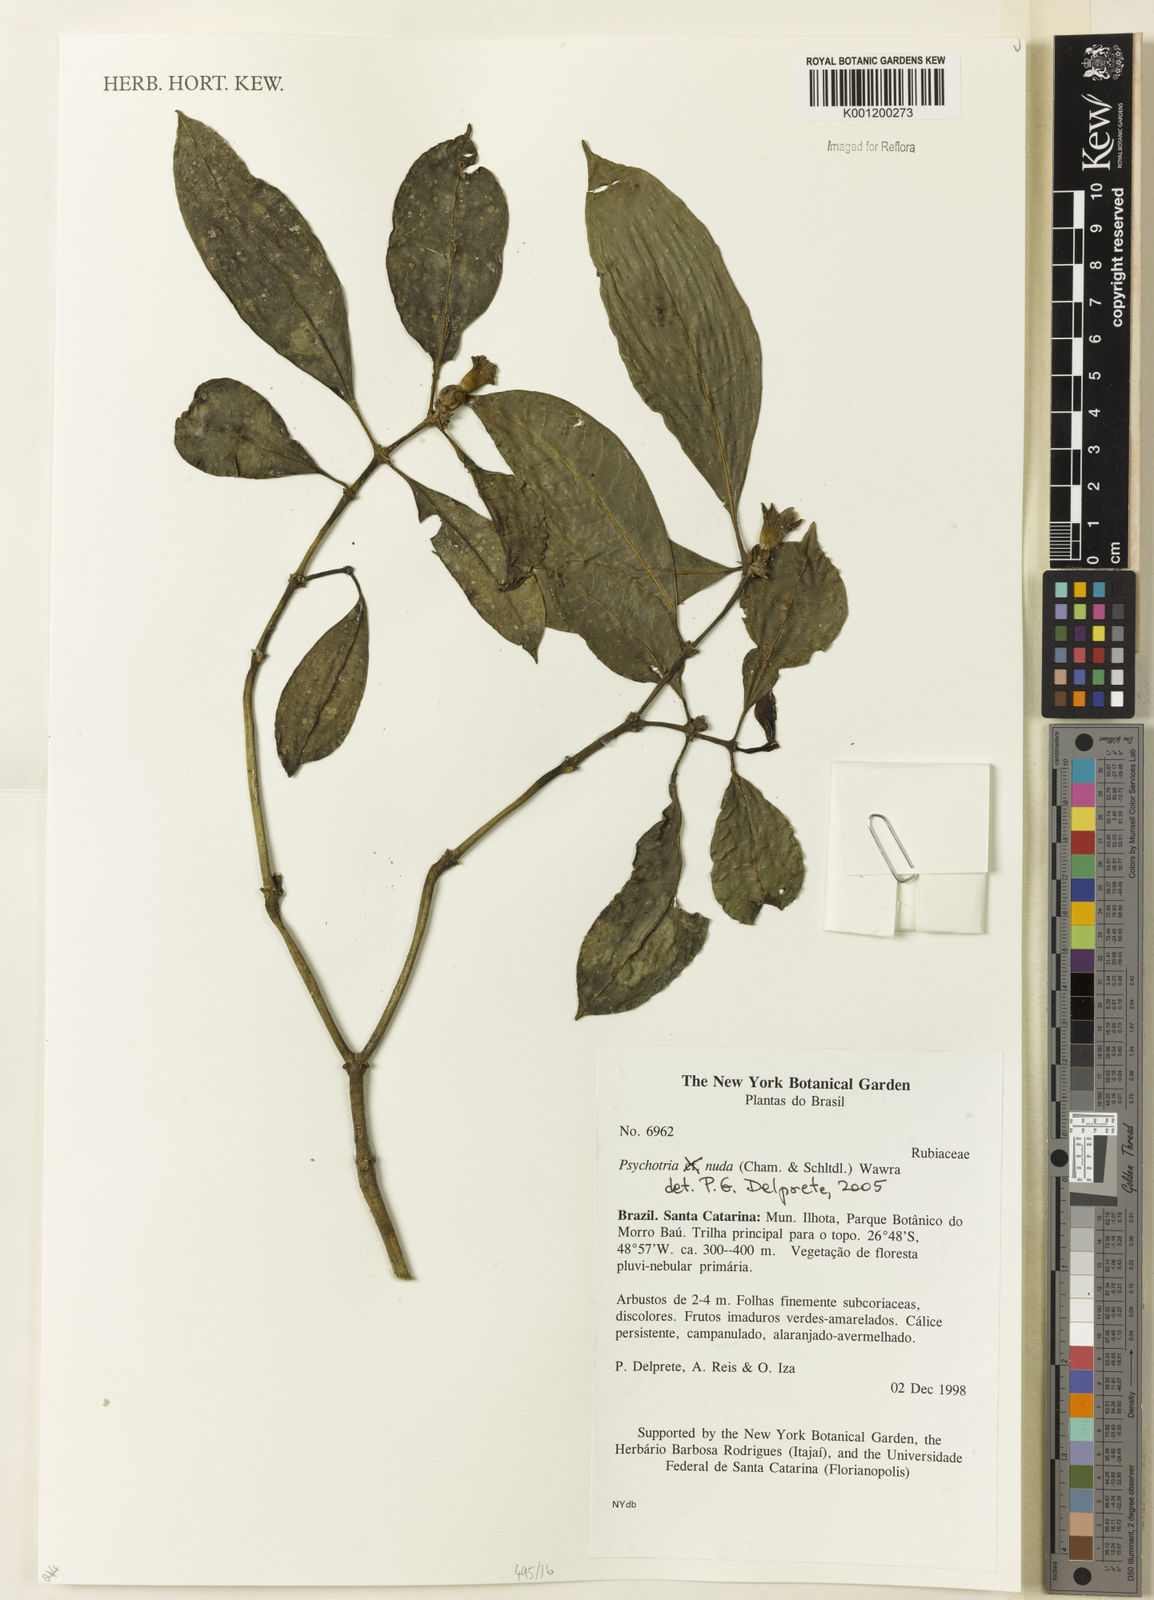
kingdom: Plantae
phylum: Tracheophyta
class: Magnoliopsida
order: Gentianales
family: Rubiaceae
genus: Psychotria
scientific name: Psychotria nuda
